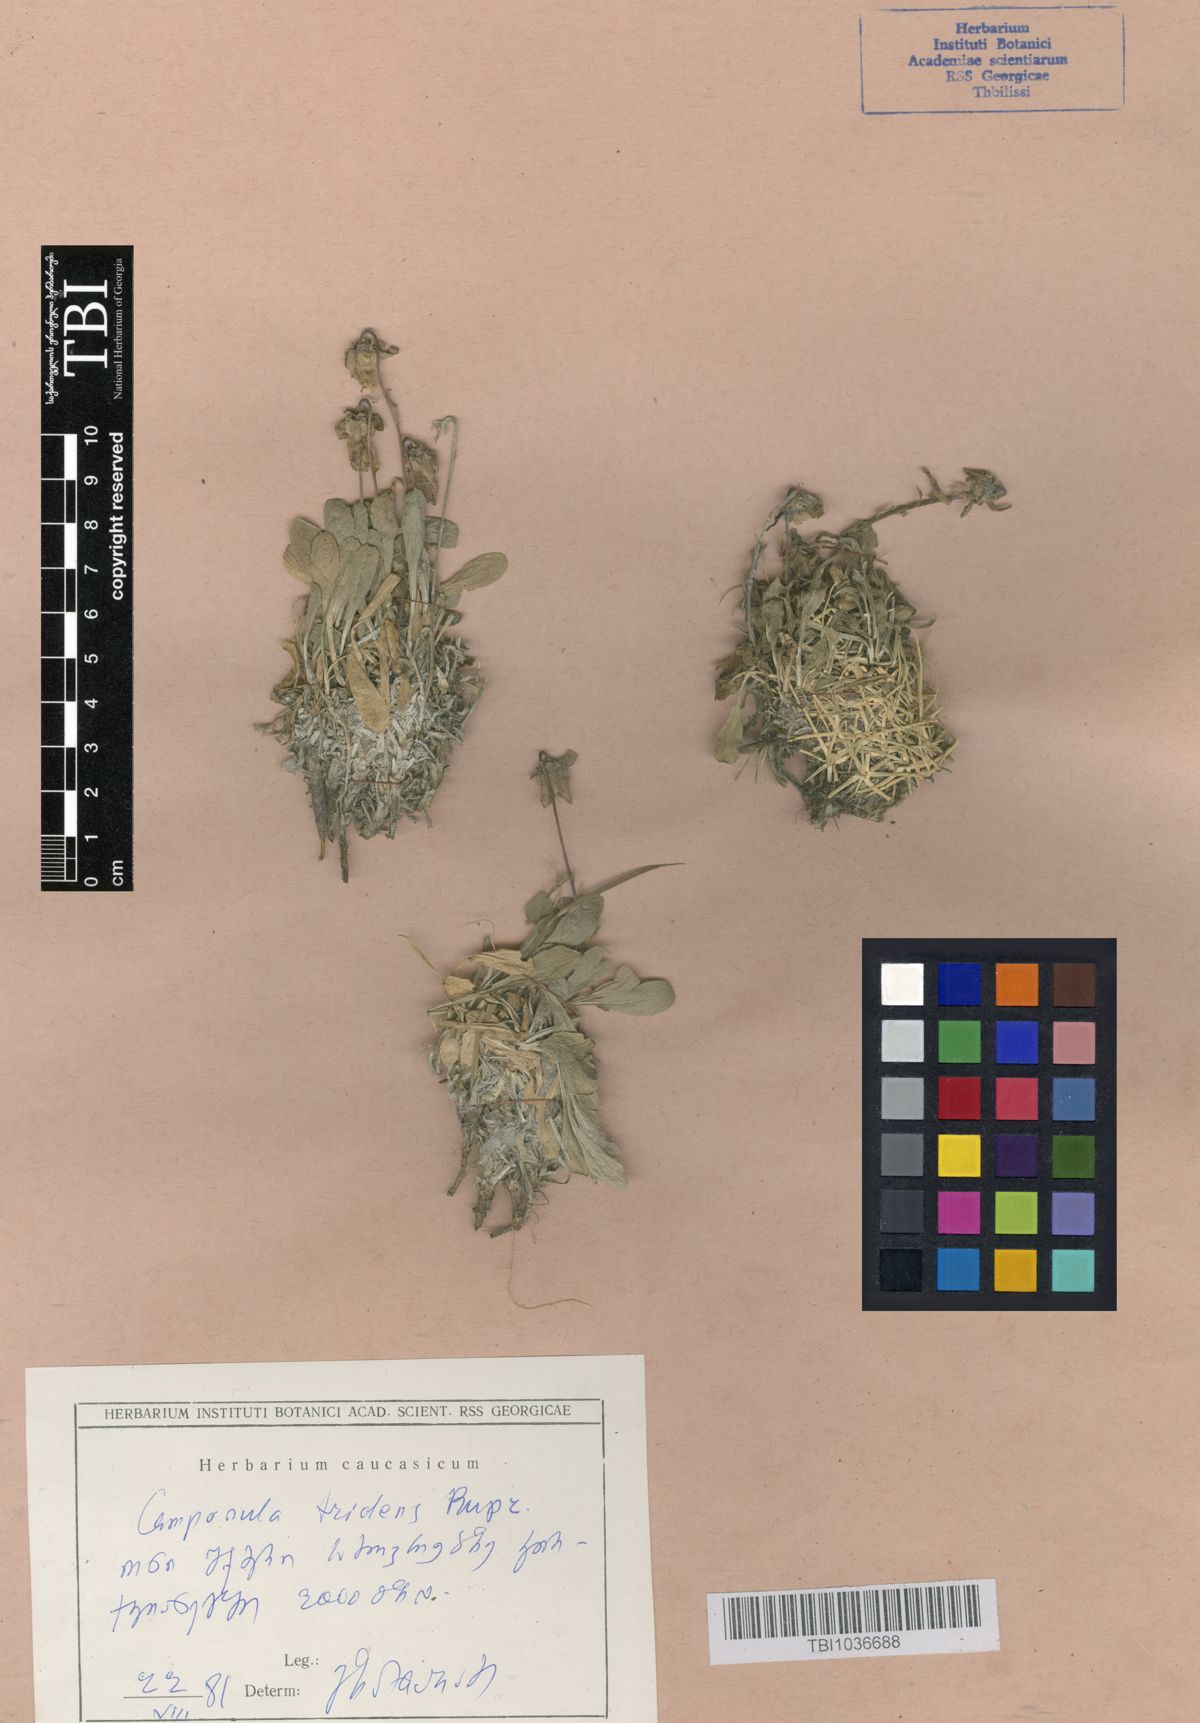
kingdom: Plantae
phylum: Tracheophyta
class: Magnoliopsida
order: Asterales
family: Campanulaceae
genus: Campanula
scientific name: Campanula tridentata
